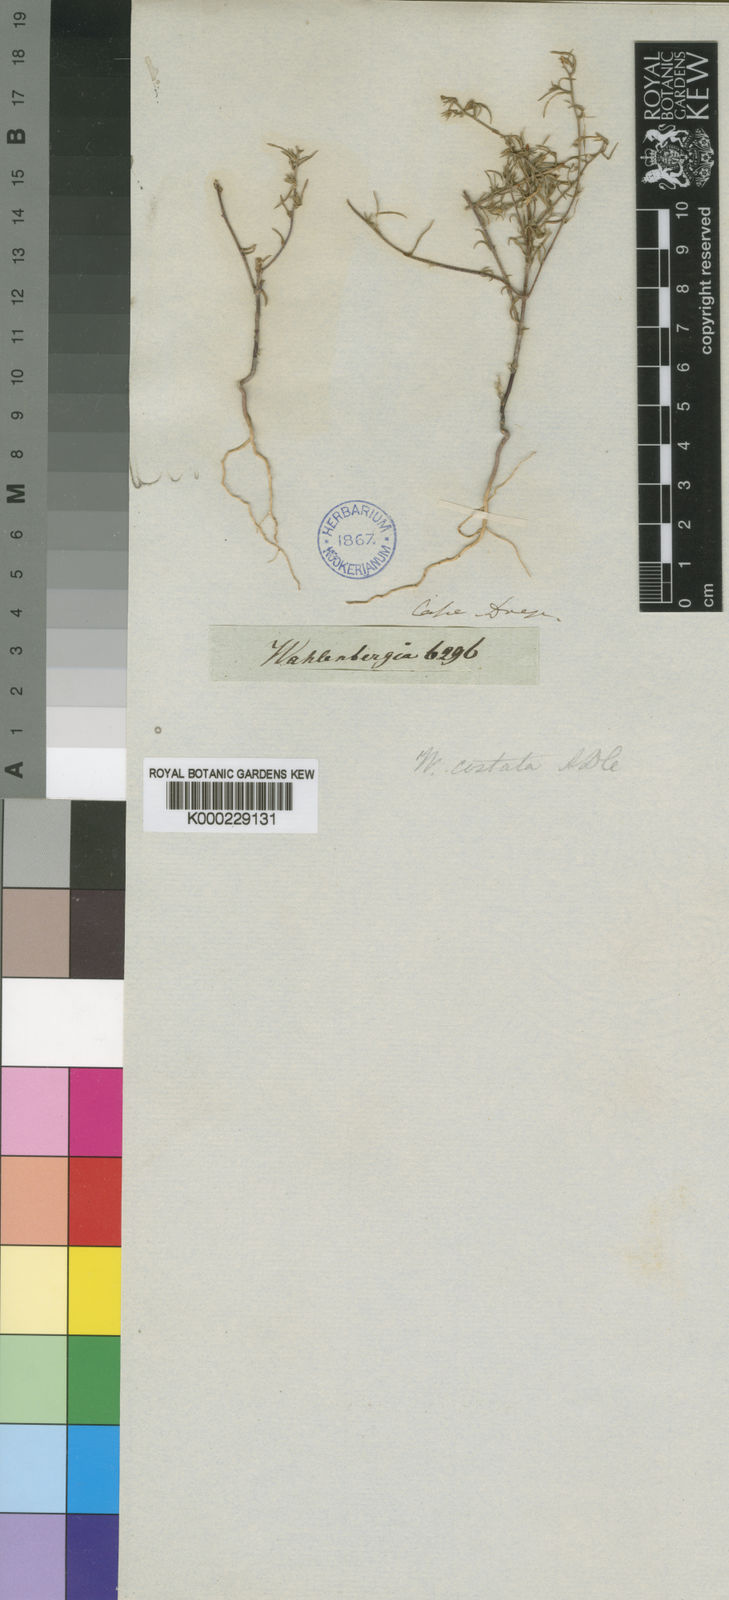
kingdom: Plantae
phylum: Tracheophyta
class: Magnoliopsida
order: Asterales
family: Campanulaceae
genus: Wahlenbergia
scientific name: Wahlenbergia costata
